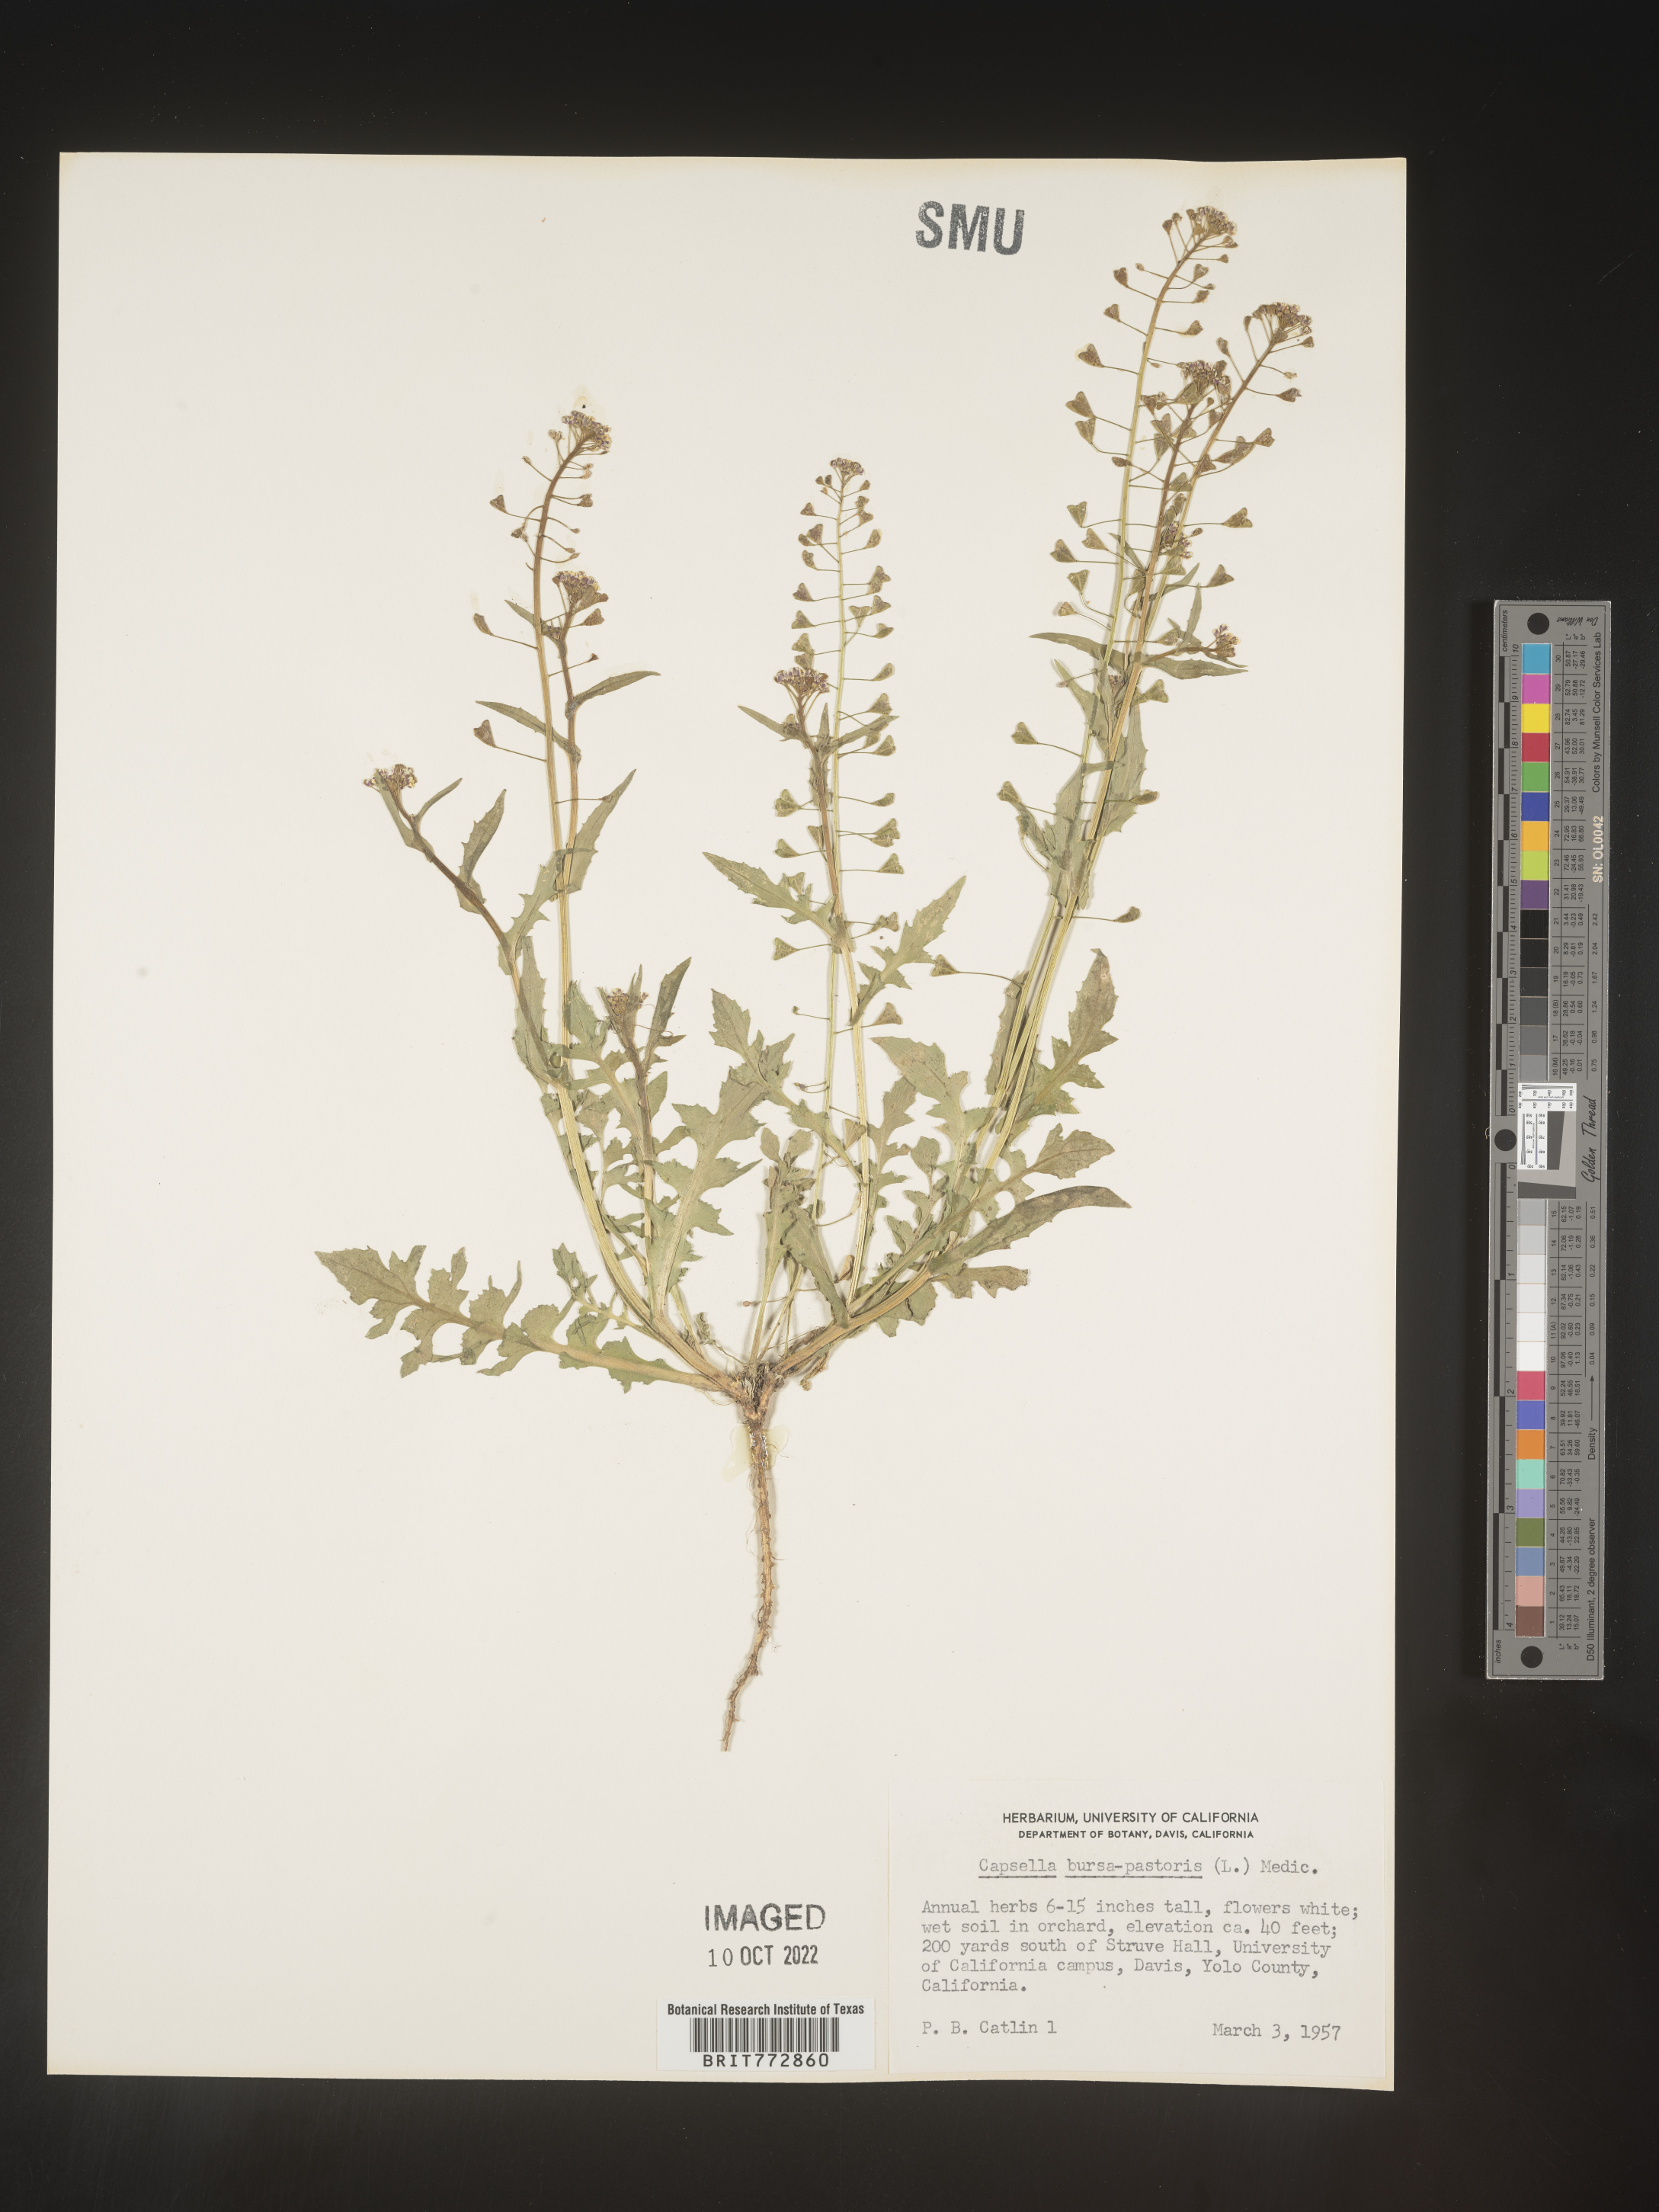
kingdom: Plantae
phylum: Tracheophyta
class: Magnoliopsida
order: Brassicales
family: Brassicaceae
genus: Capsella
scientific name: Capsella bursa-pastoris
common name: Shepherd's purse
